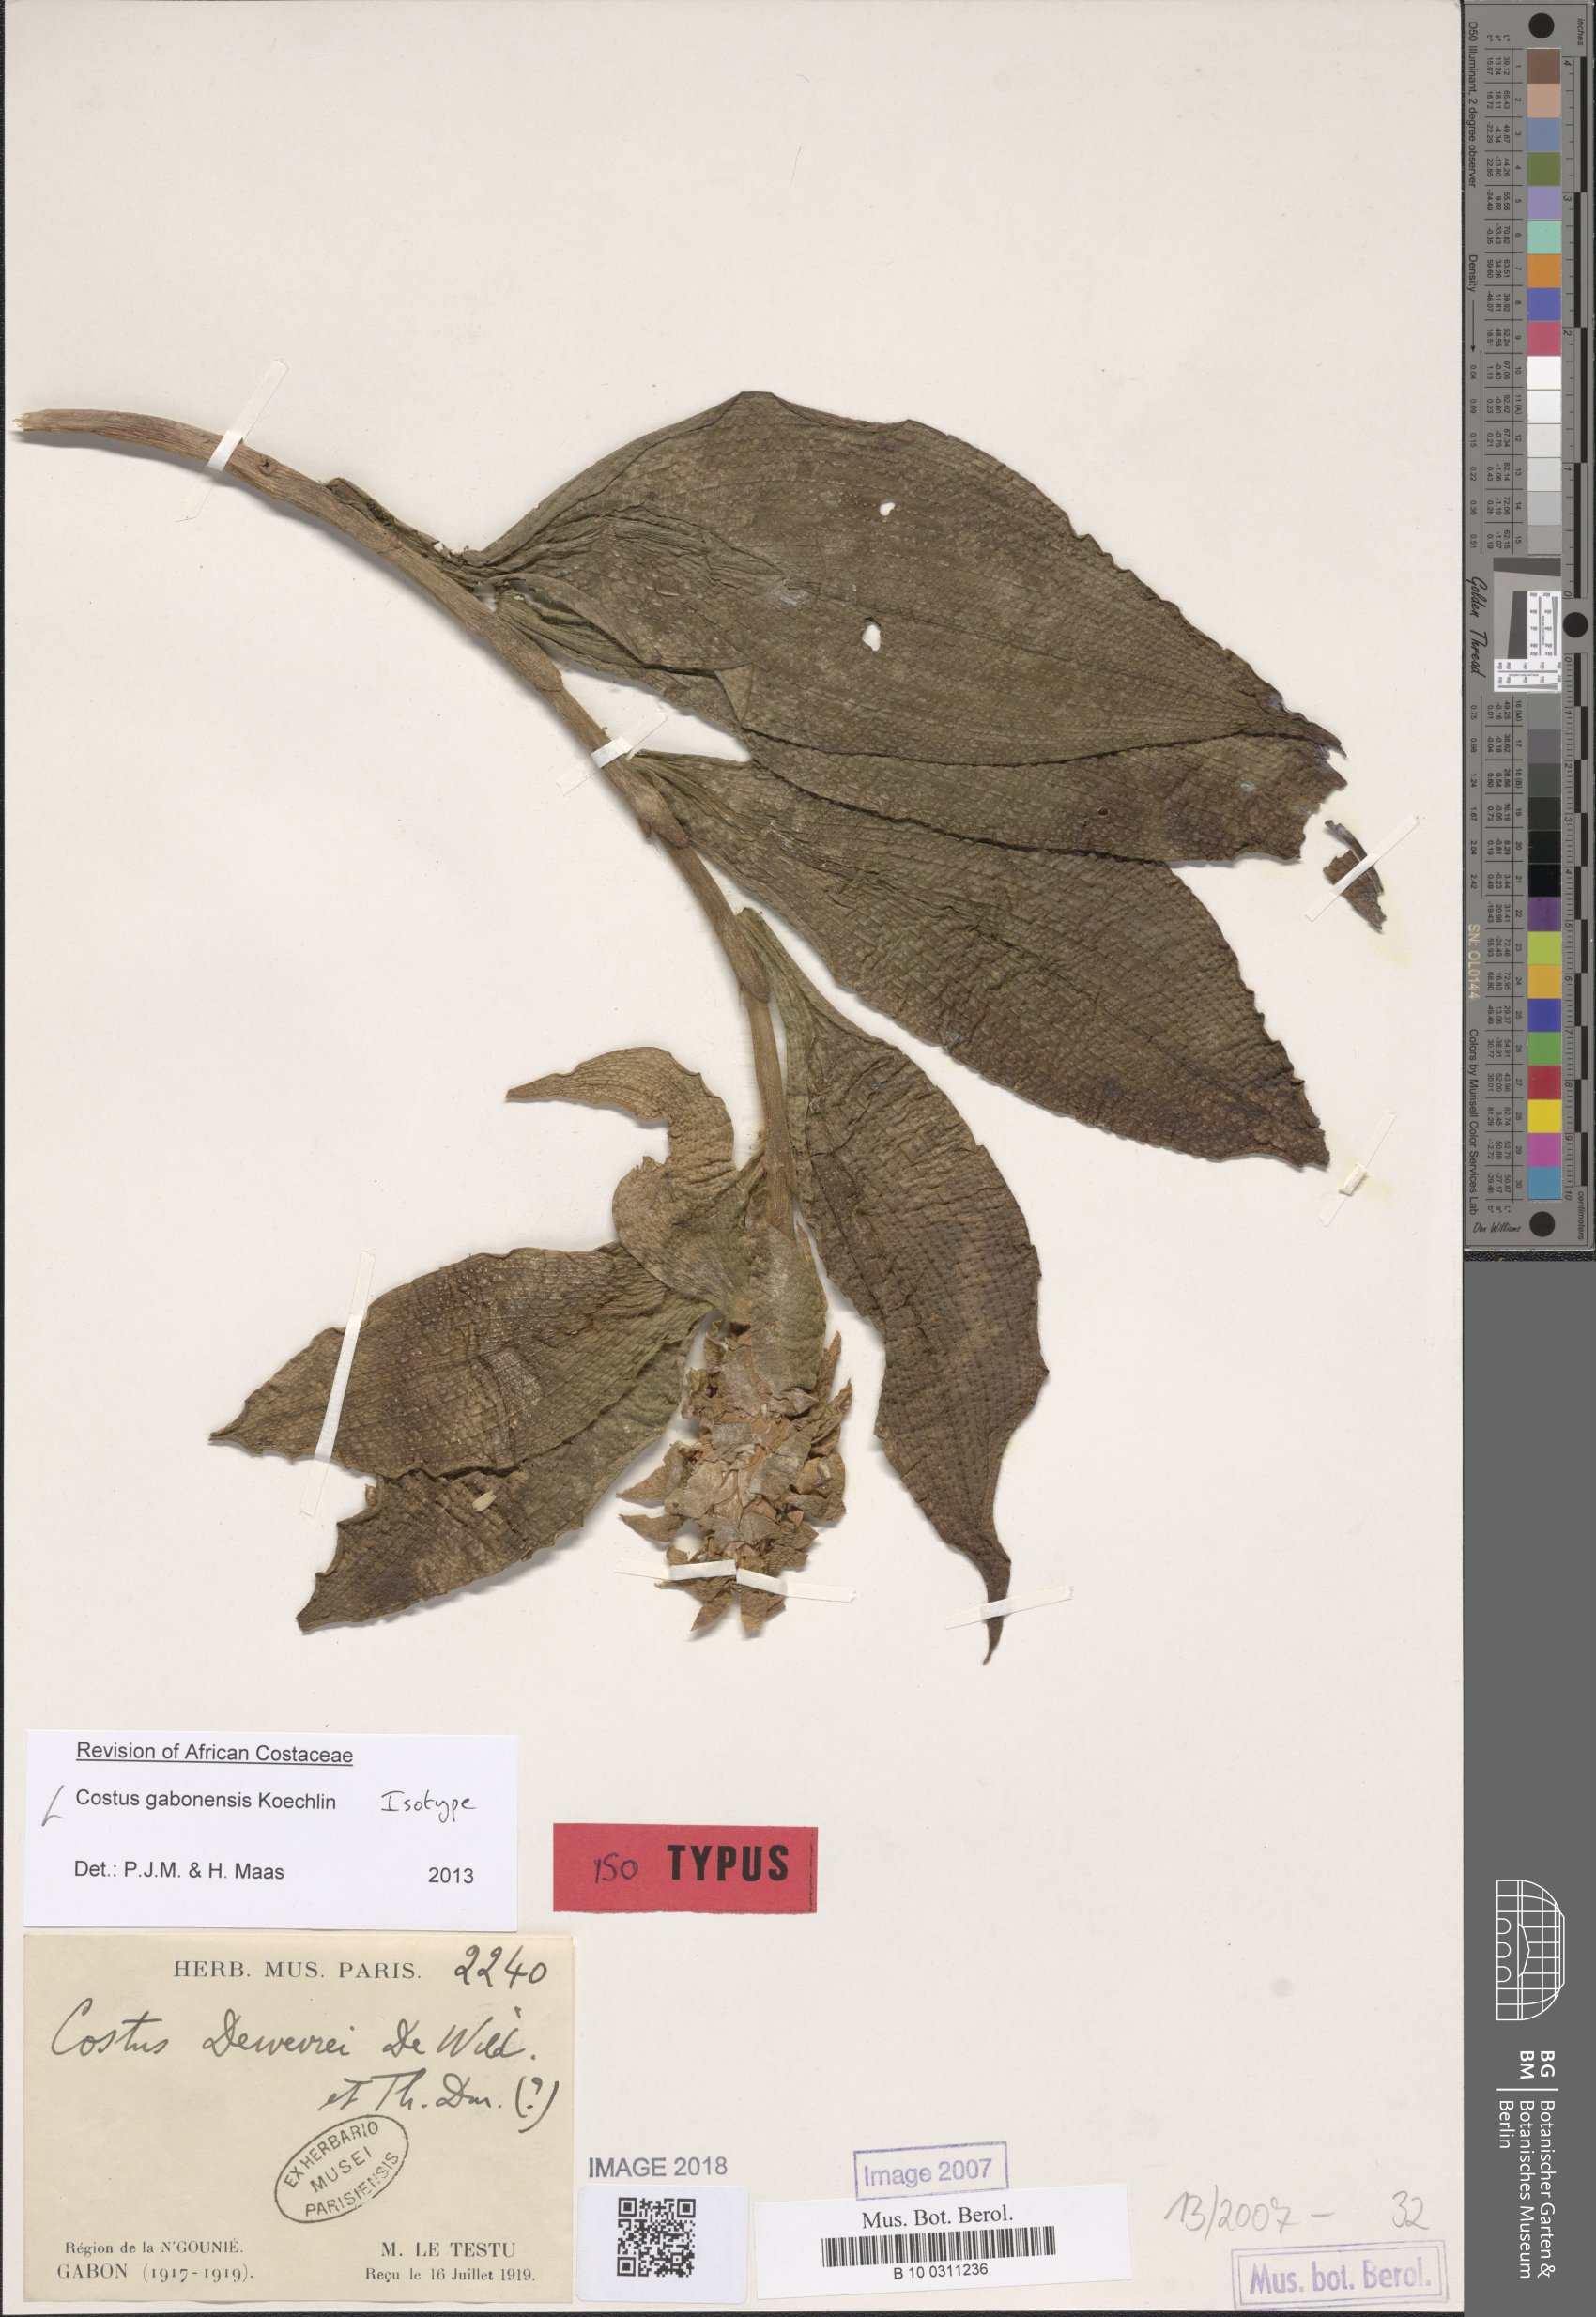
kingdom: Plantae
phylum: Tracheophyta
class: Liliopsida
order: Zingiberales
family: Costaceae
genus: Costus
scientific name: Costus gabonensis
